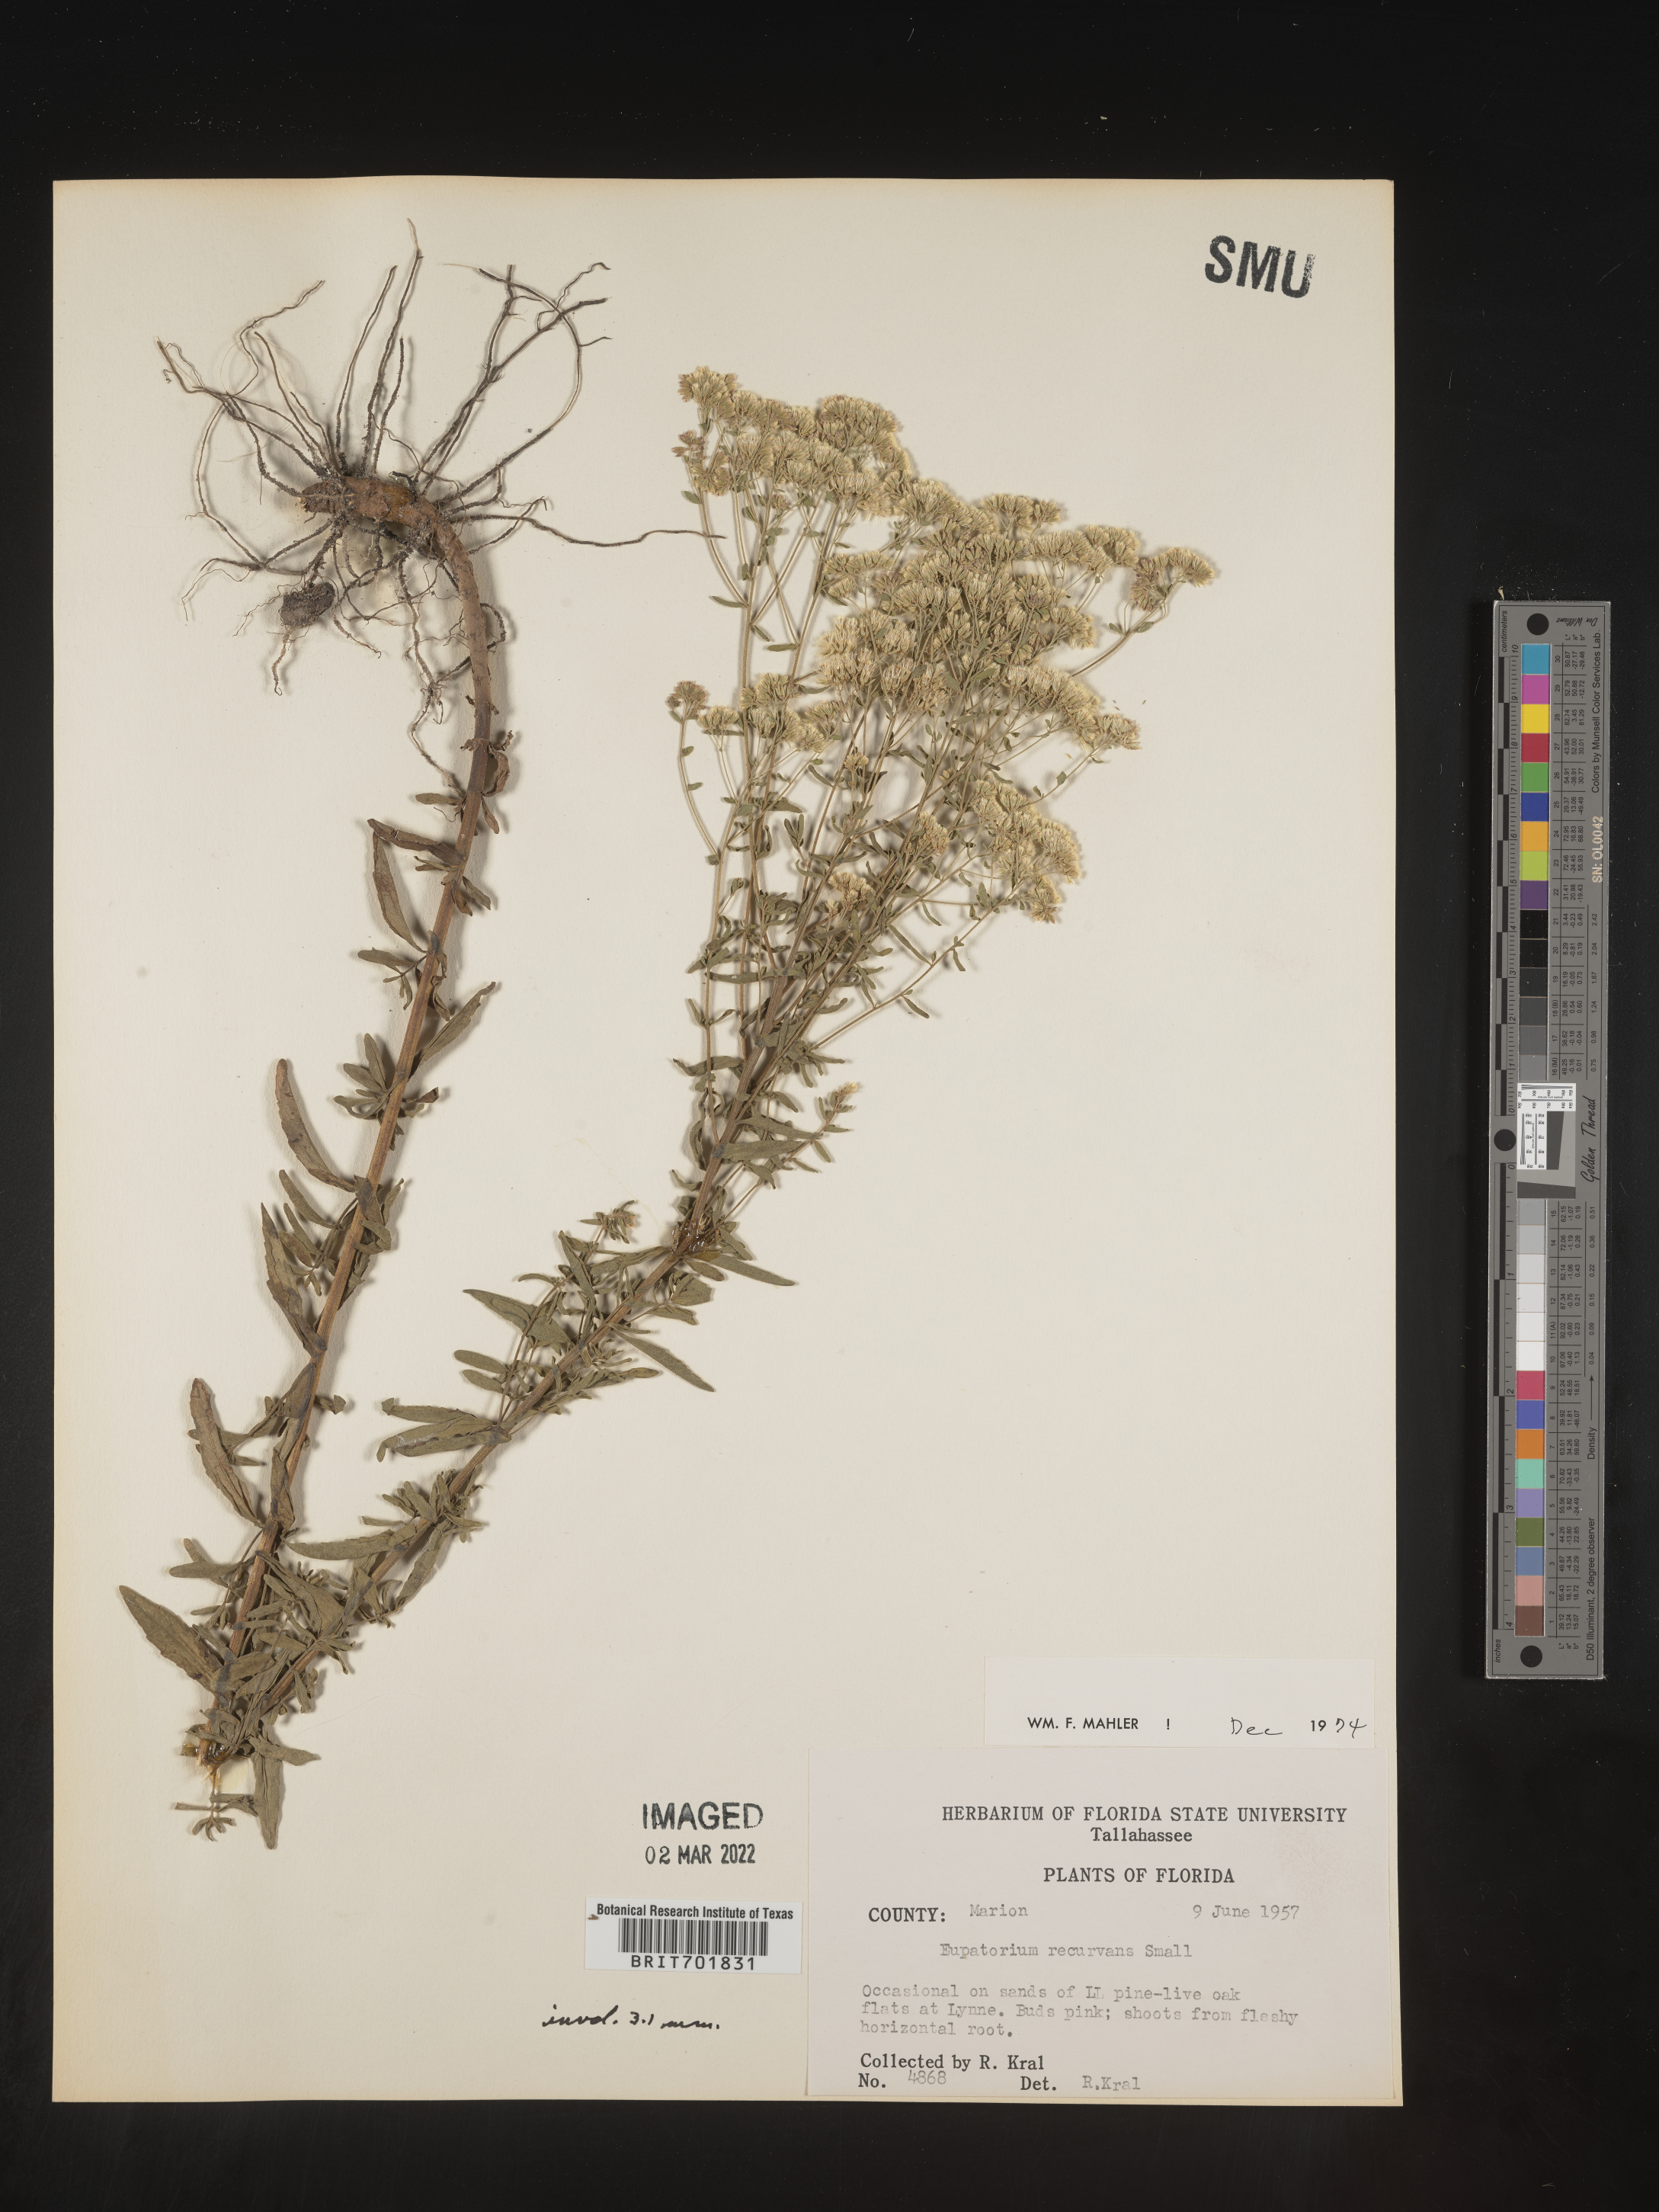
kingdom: Plantae
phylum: Tracheophyta
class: Magnoliopsida
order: Asterales
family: Asteraceae
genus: Eupatorium
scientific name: Eupatorium mohrii
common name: Mohr's thoroughwort
